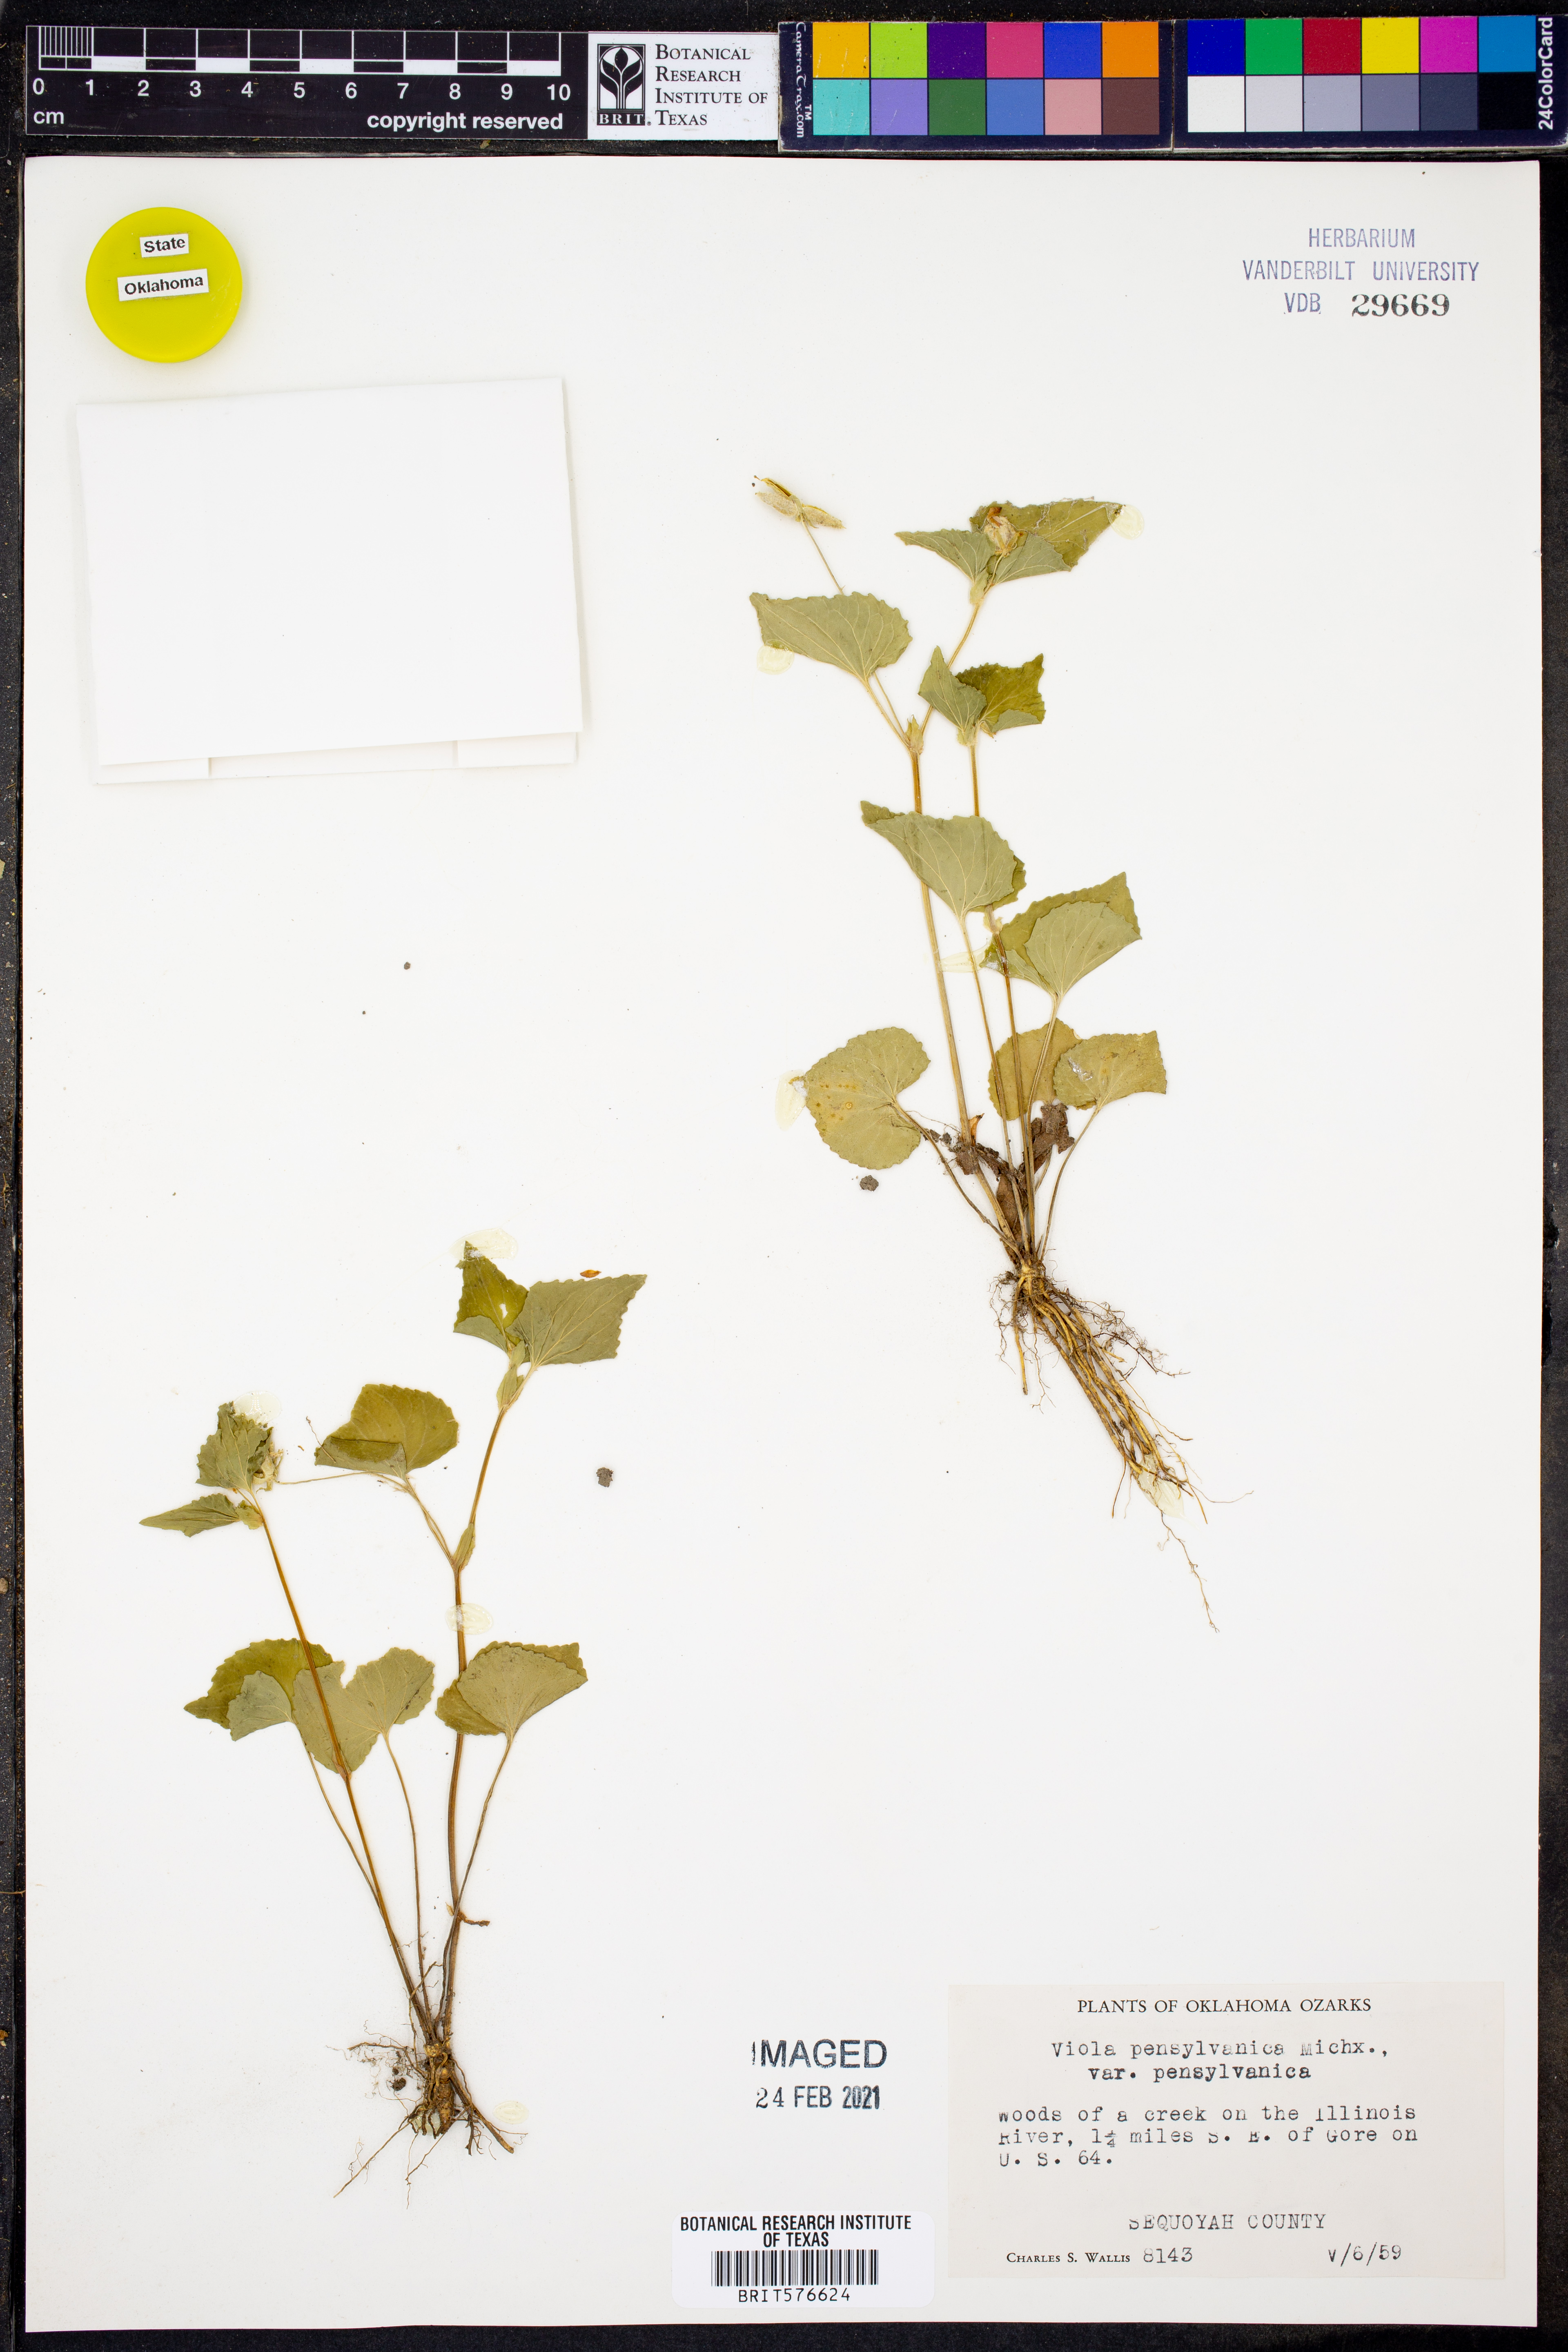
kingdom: Plantae
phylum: Tracheophyta
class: Magnoliopsida
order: Malpighiales
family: Violaceae
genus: Viola
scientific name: Viola pubescens
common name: Yellow forest violet
